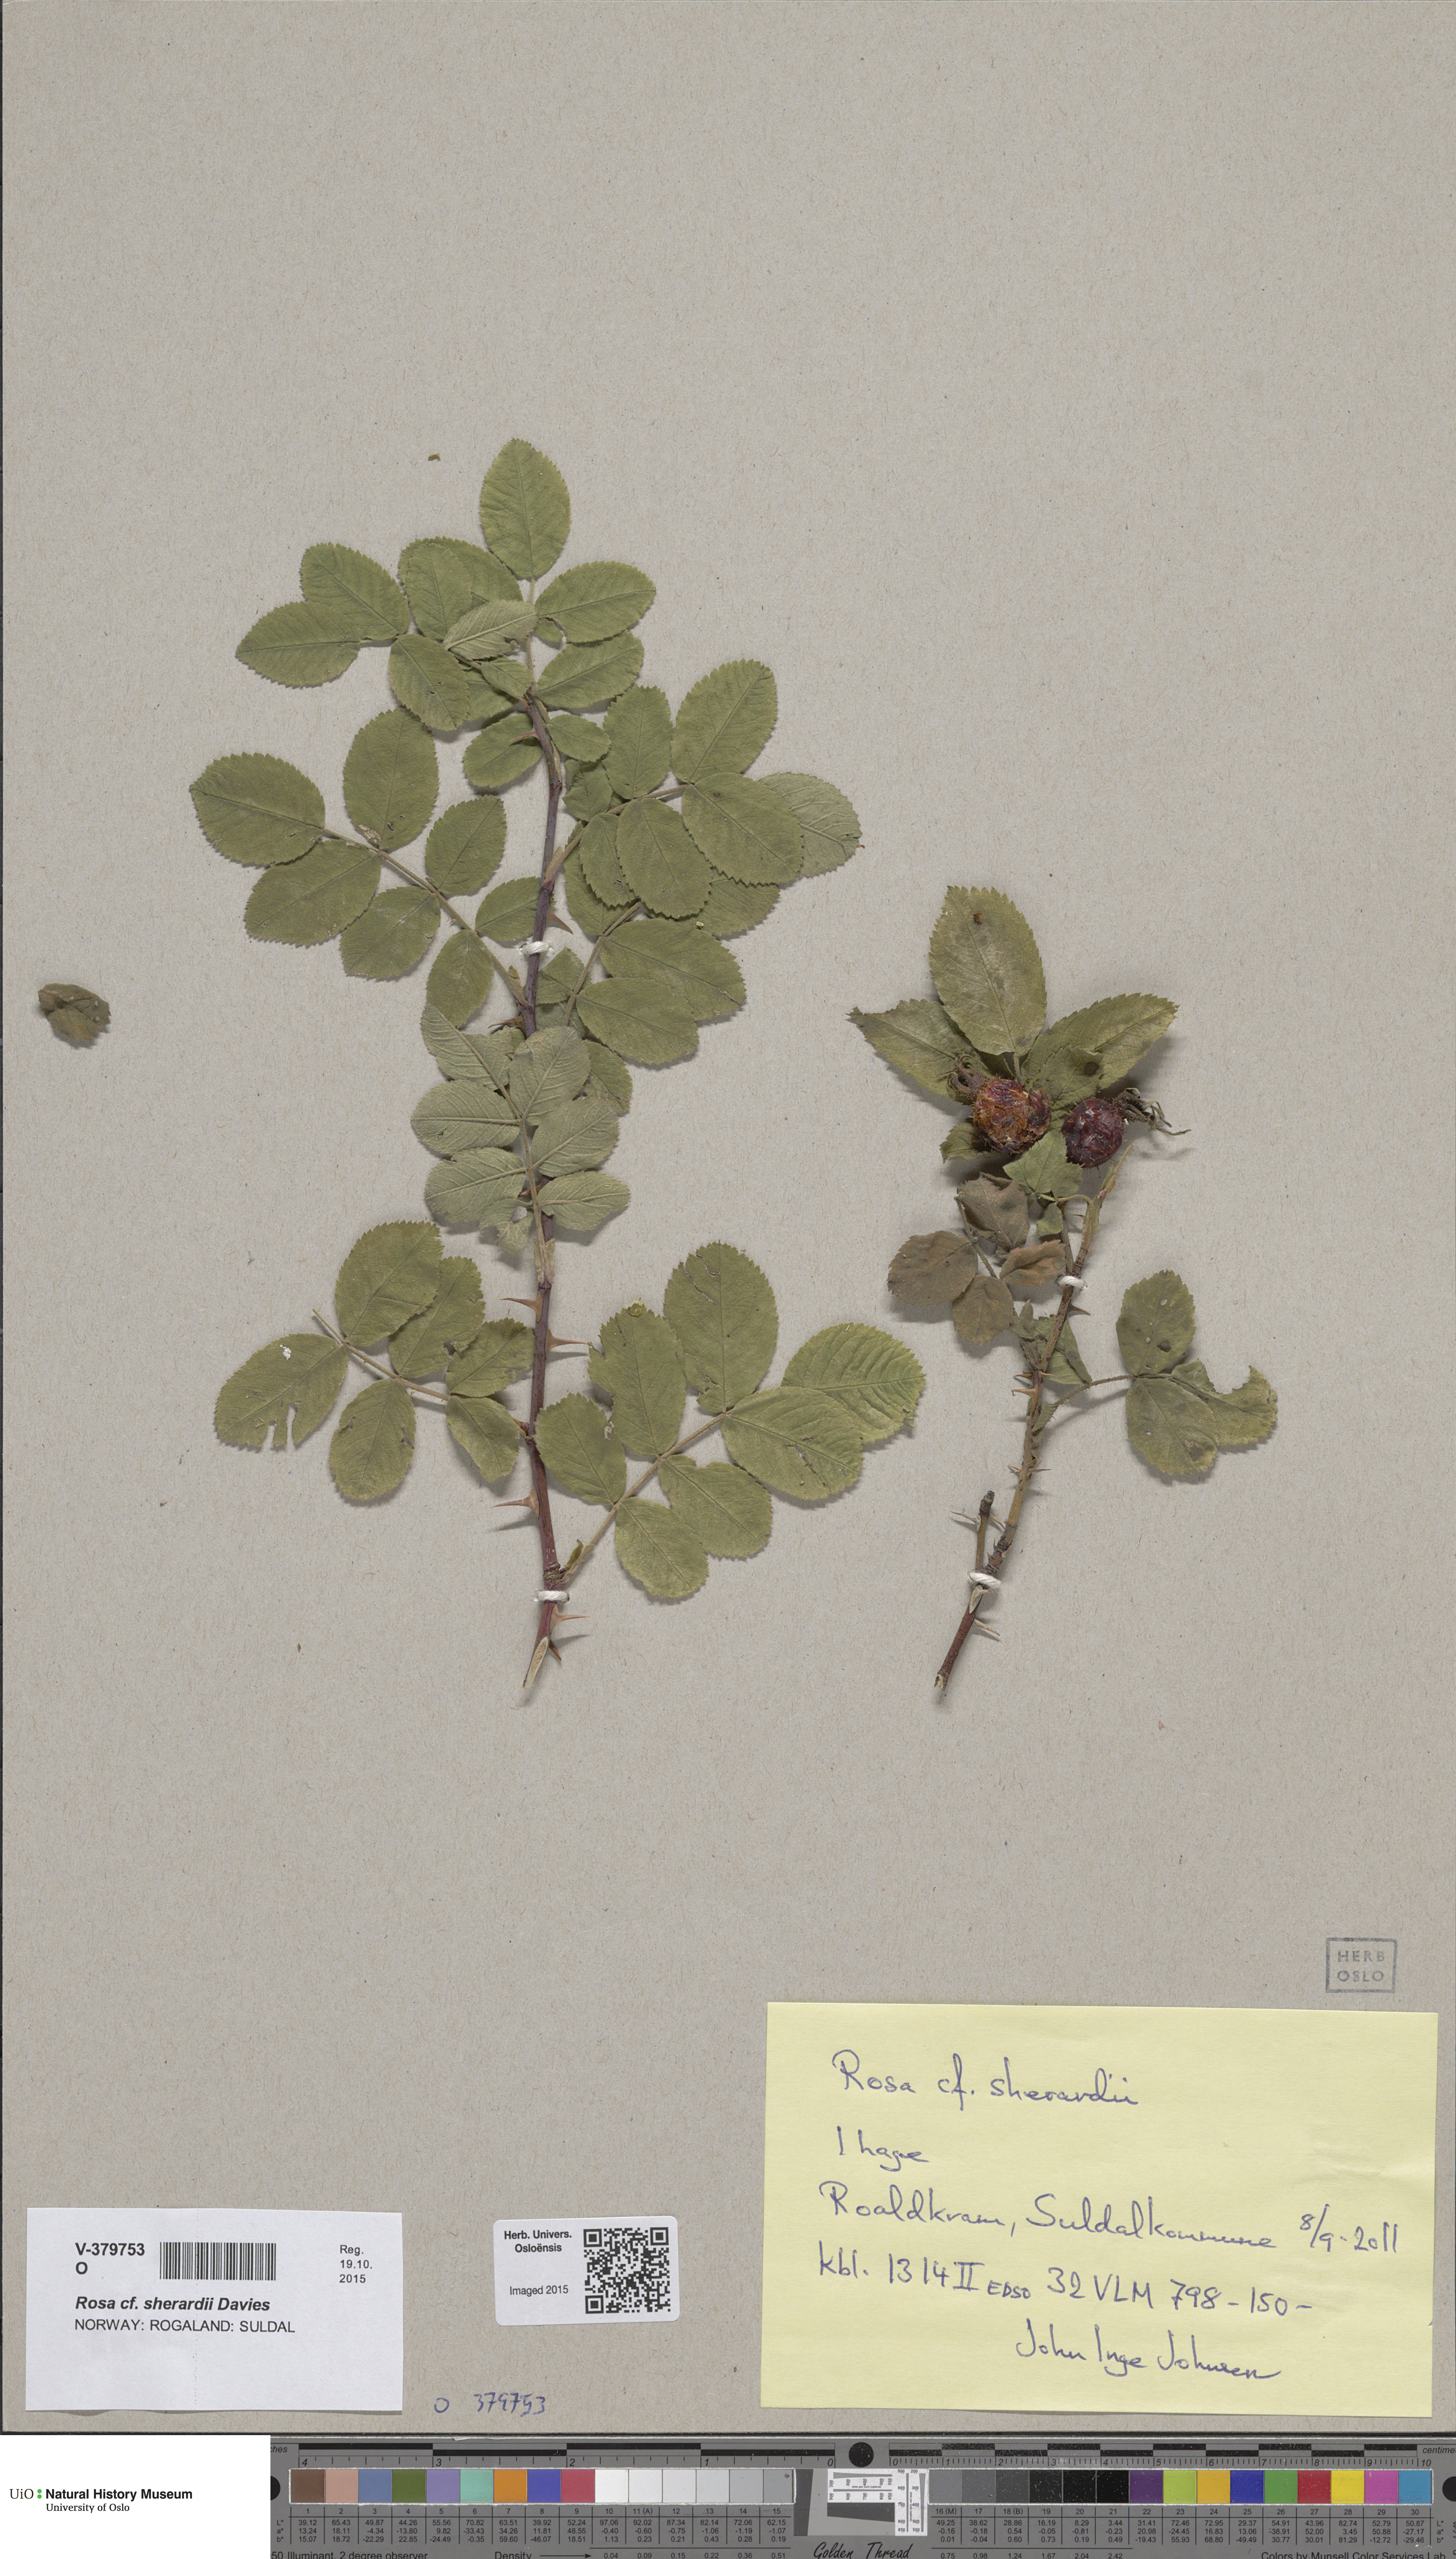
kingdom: Plantae
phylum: Tracheophyta
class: Magnoliopsida
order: Rosales
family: Rosaceae
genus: Rosa
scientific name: Rosa sherardii
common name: Sherard's downy rose
